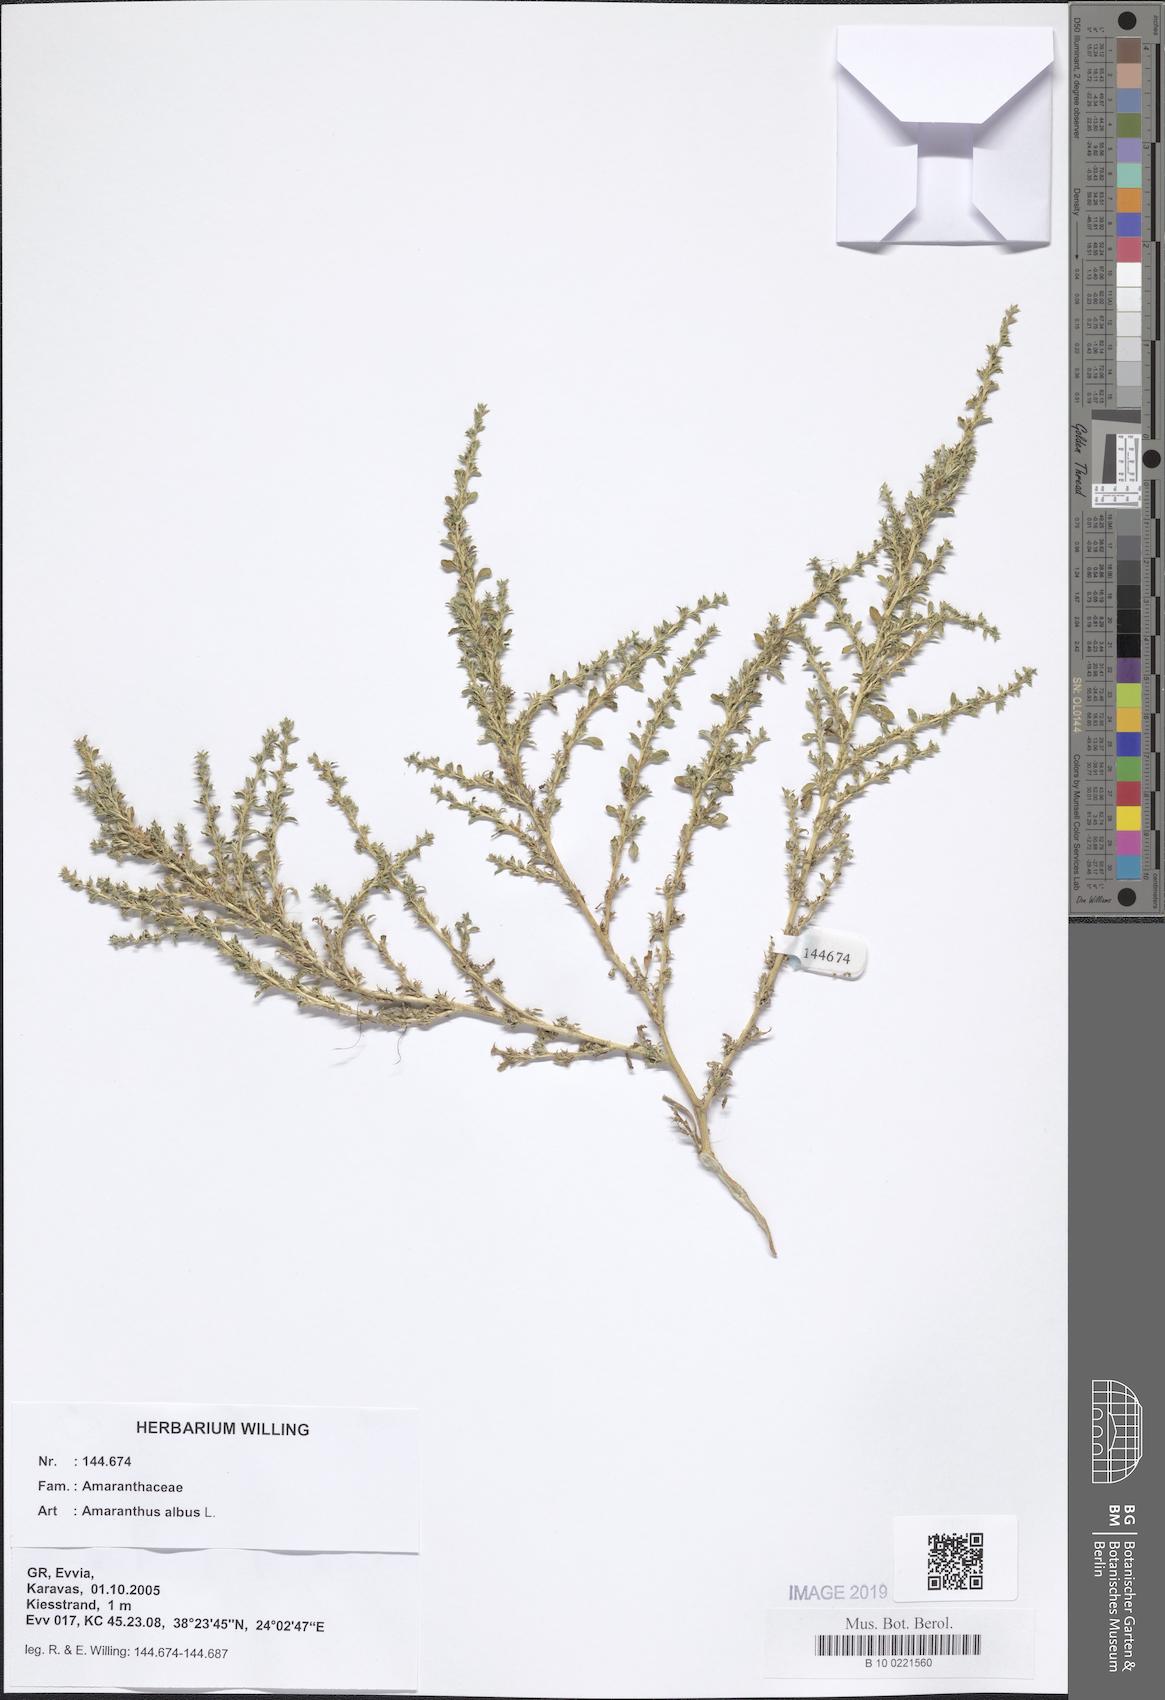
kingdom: Plantae
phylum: Tracheophyta
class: Magnoliopsida
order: Caryophyllales
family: Amaranthaceae
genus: Amaranthus
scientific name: Amaranthus albus
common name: White pigweed
